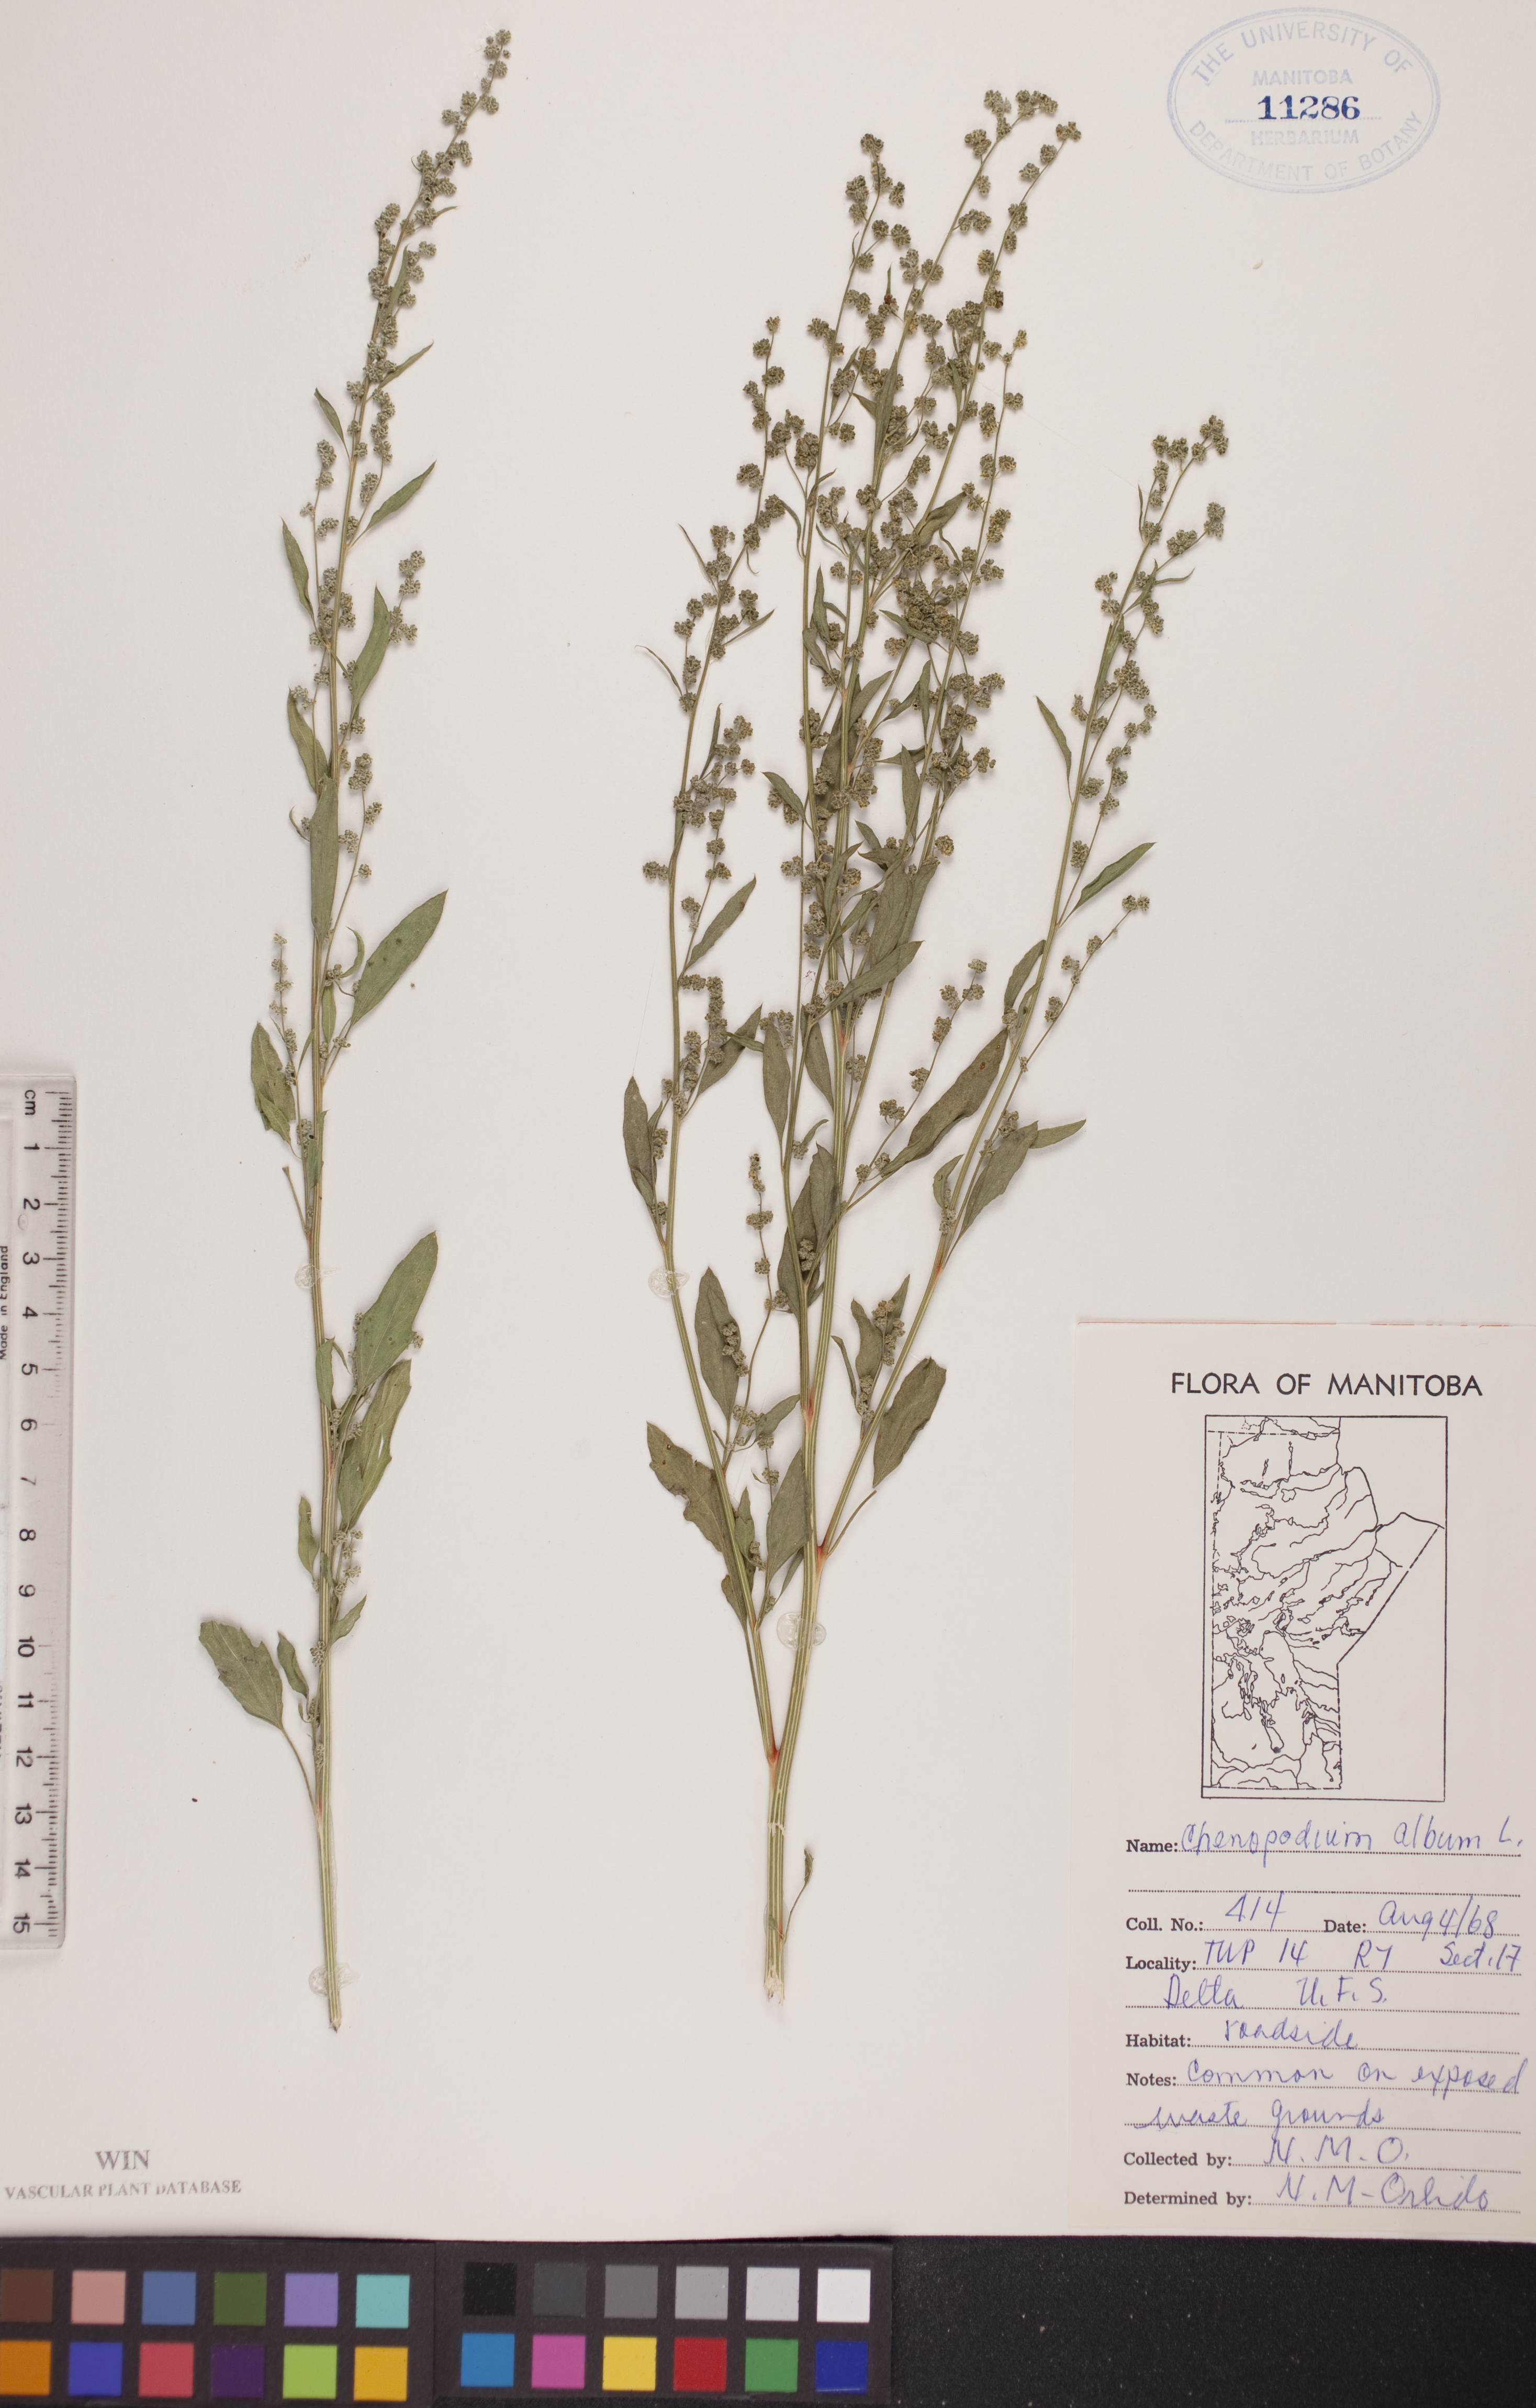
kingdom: Plantae
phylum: Tracheophyta
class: Magnoliopsida
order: Caryophyllales
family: Amaranthaceae
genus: Chenopodium
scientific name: Chenopodium album
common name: Fat-hen
